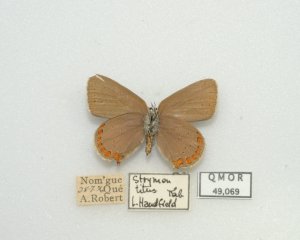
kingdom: Animalia
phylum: Arthropoda
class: Insecta
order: Lepidoptera
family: Lycaenidae
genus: Harkenclenus
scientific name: Harkenclenus titus
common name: Coral Hairstreak
